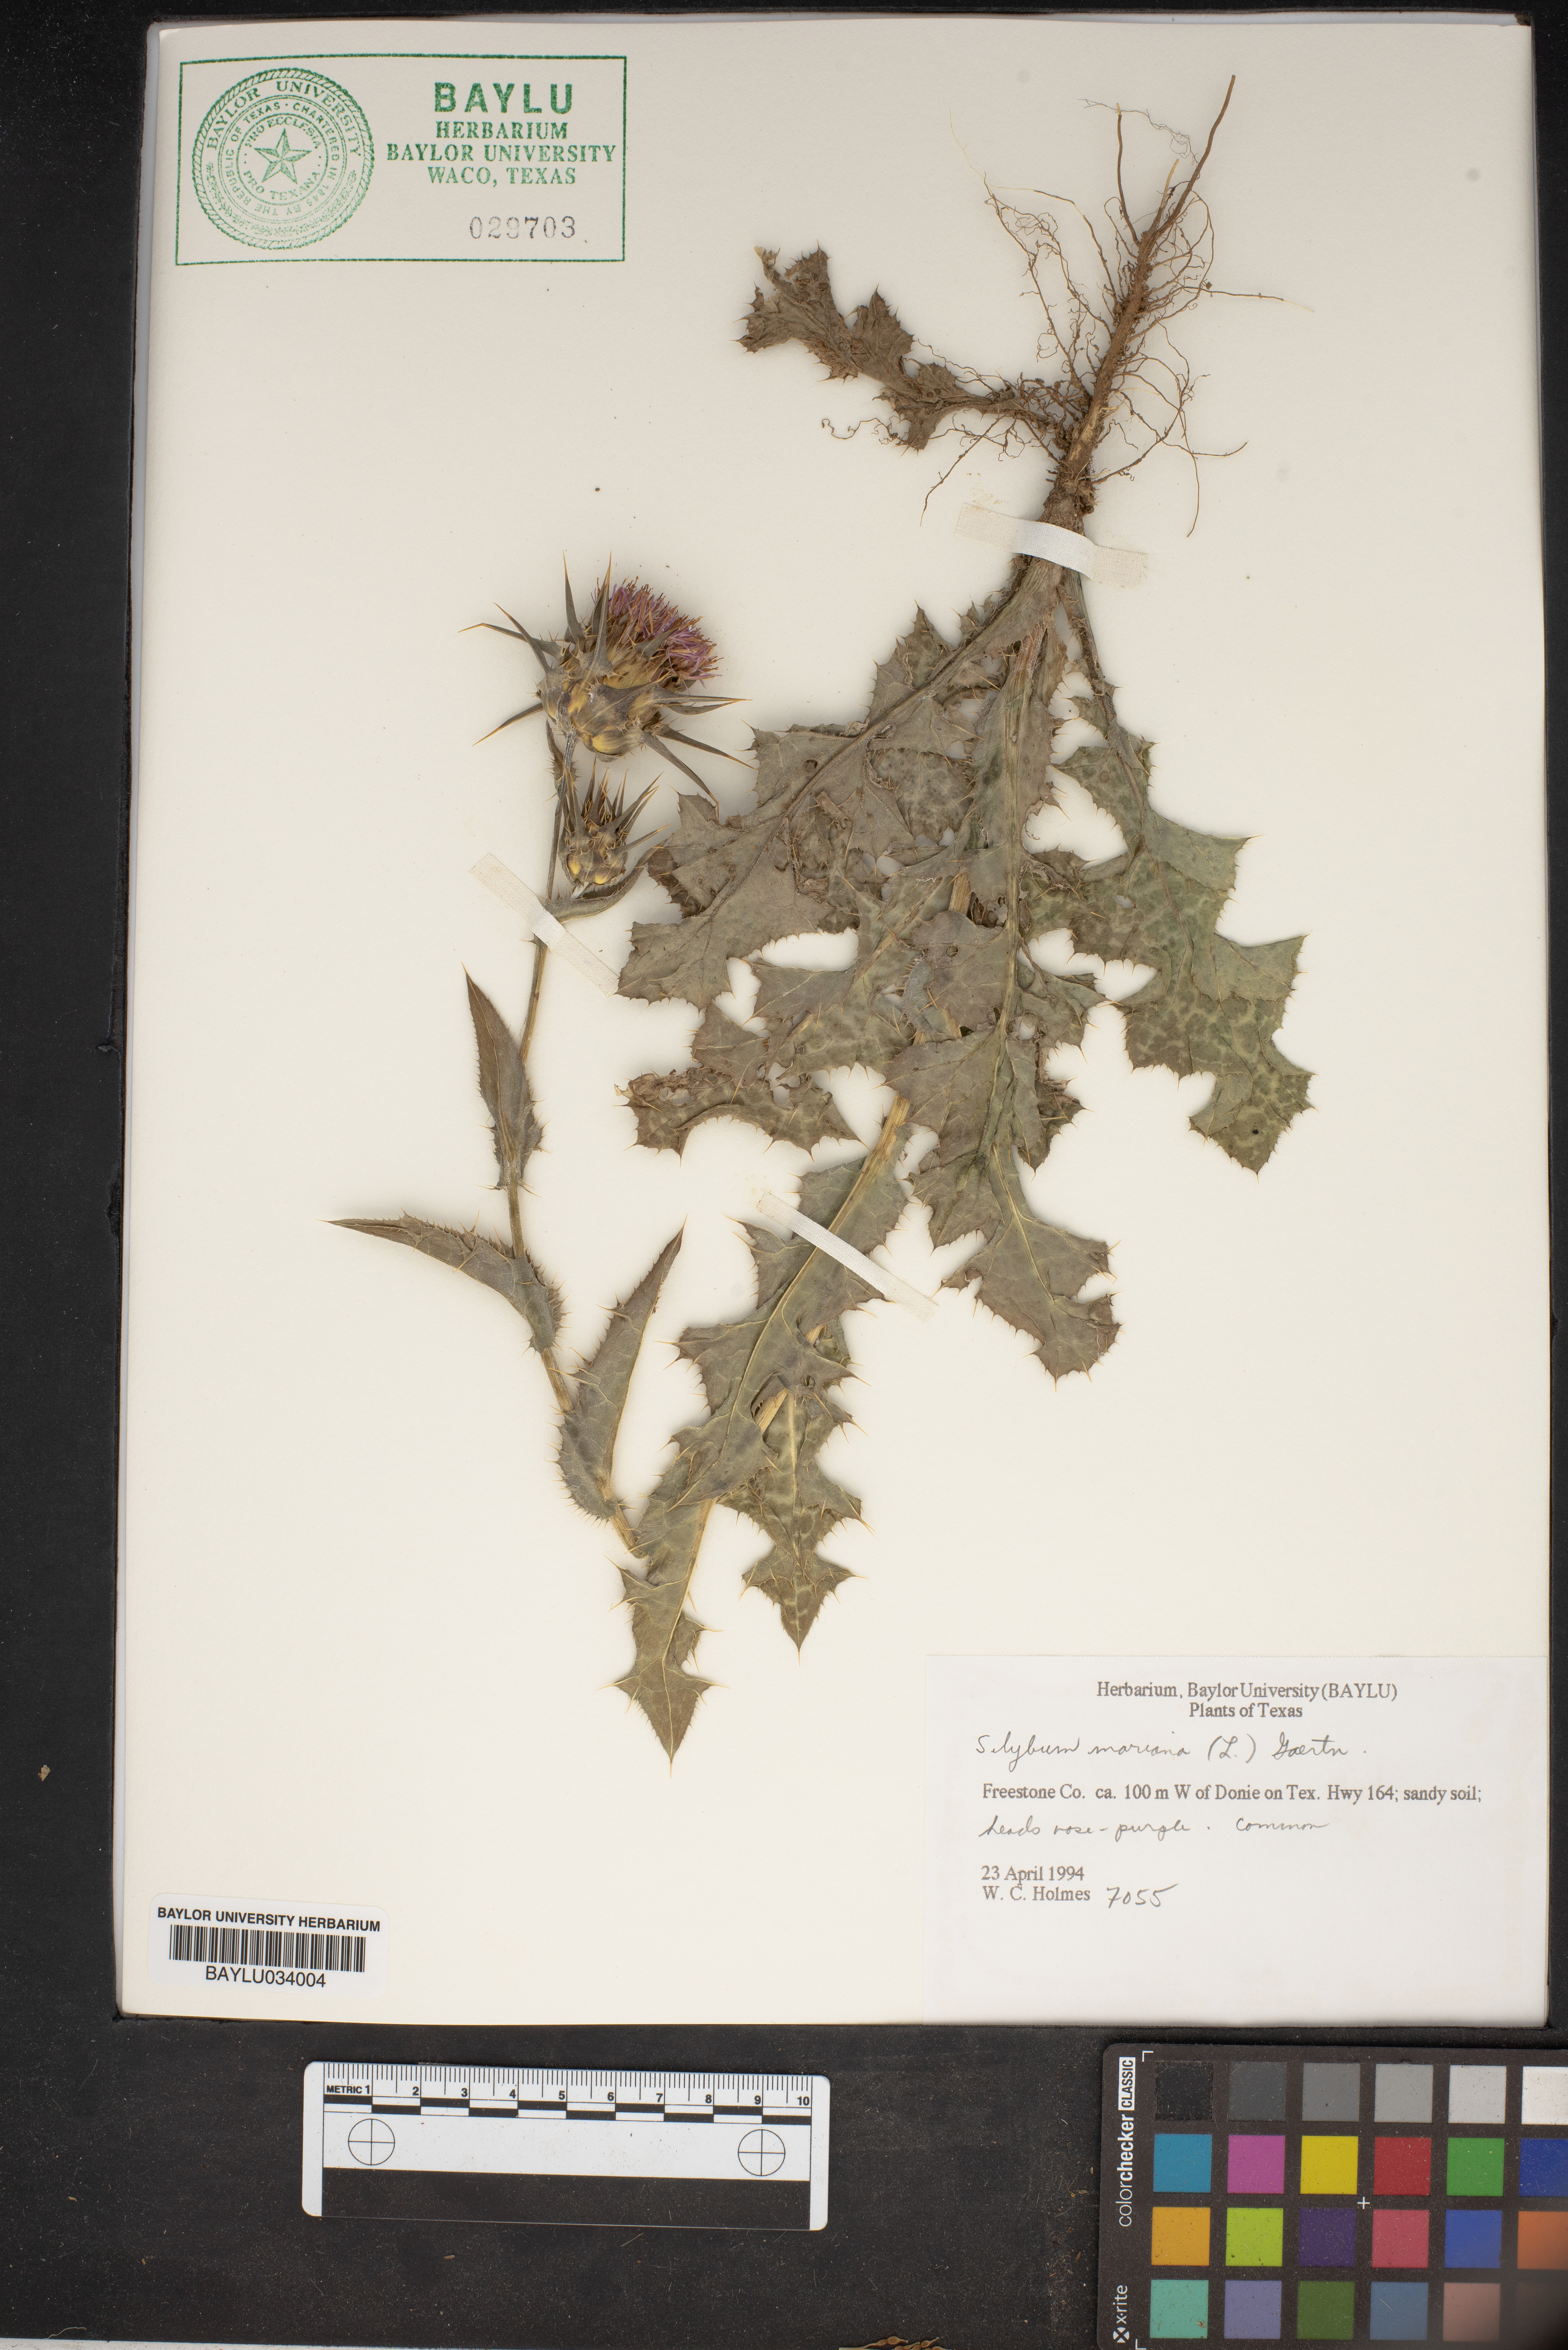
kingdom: Plantae
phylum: Tracheophyta
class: Magnoliopsida
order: Asterales
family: Asteraceae
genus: Silybum
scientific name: Silybum marianum
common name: Milk thistle
